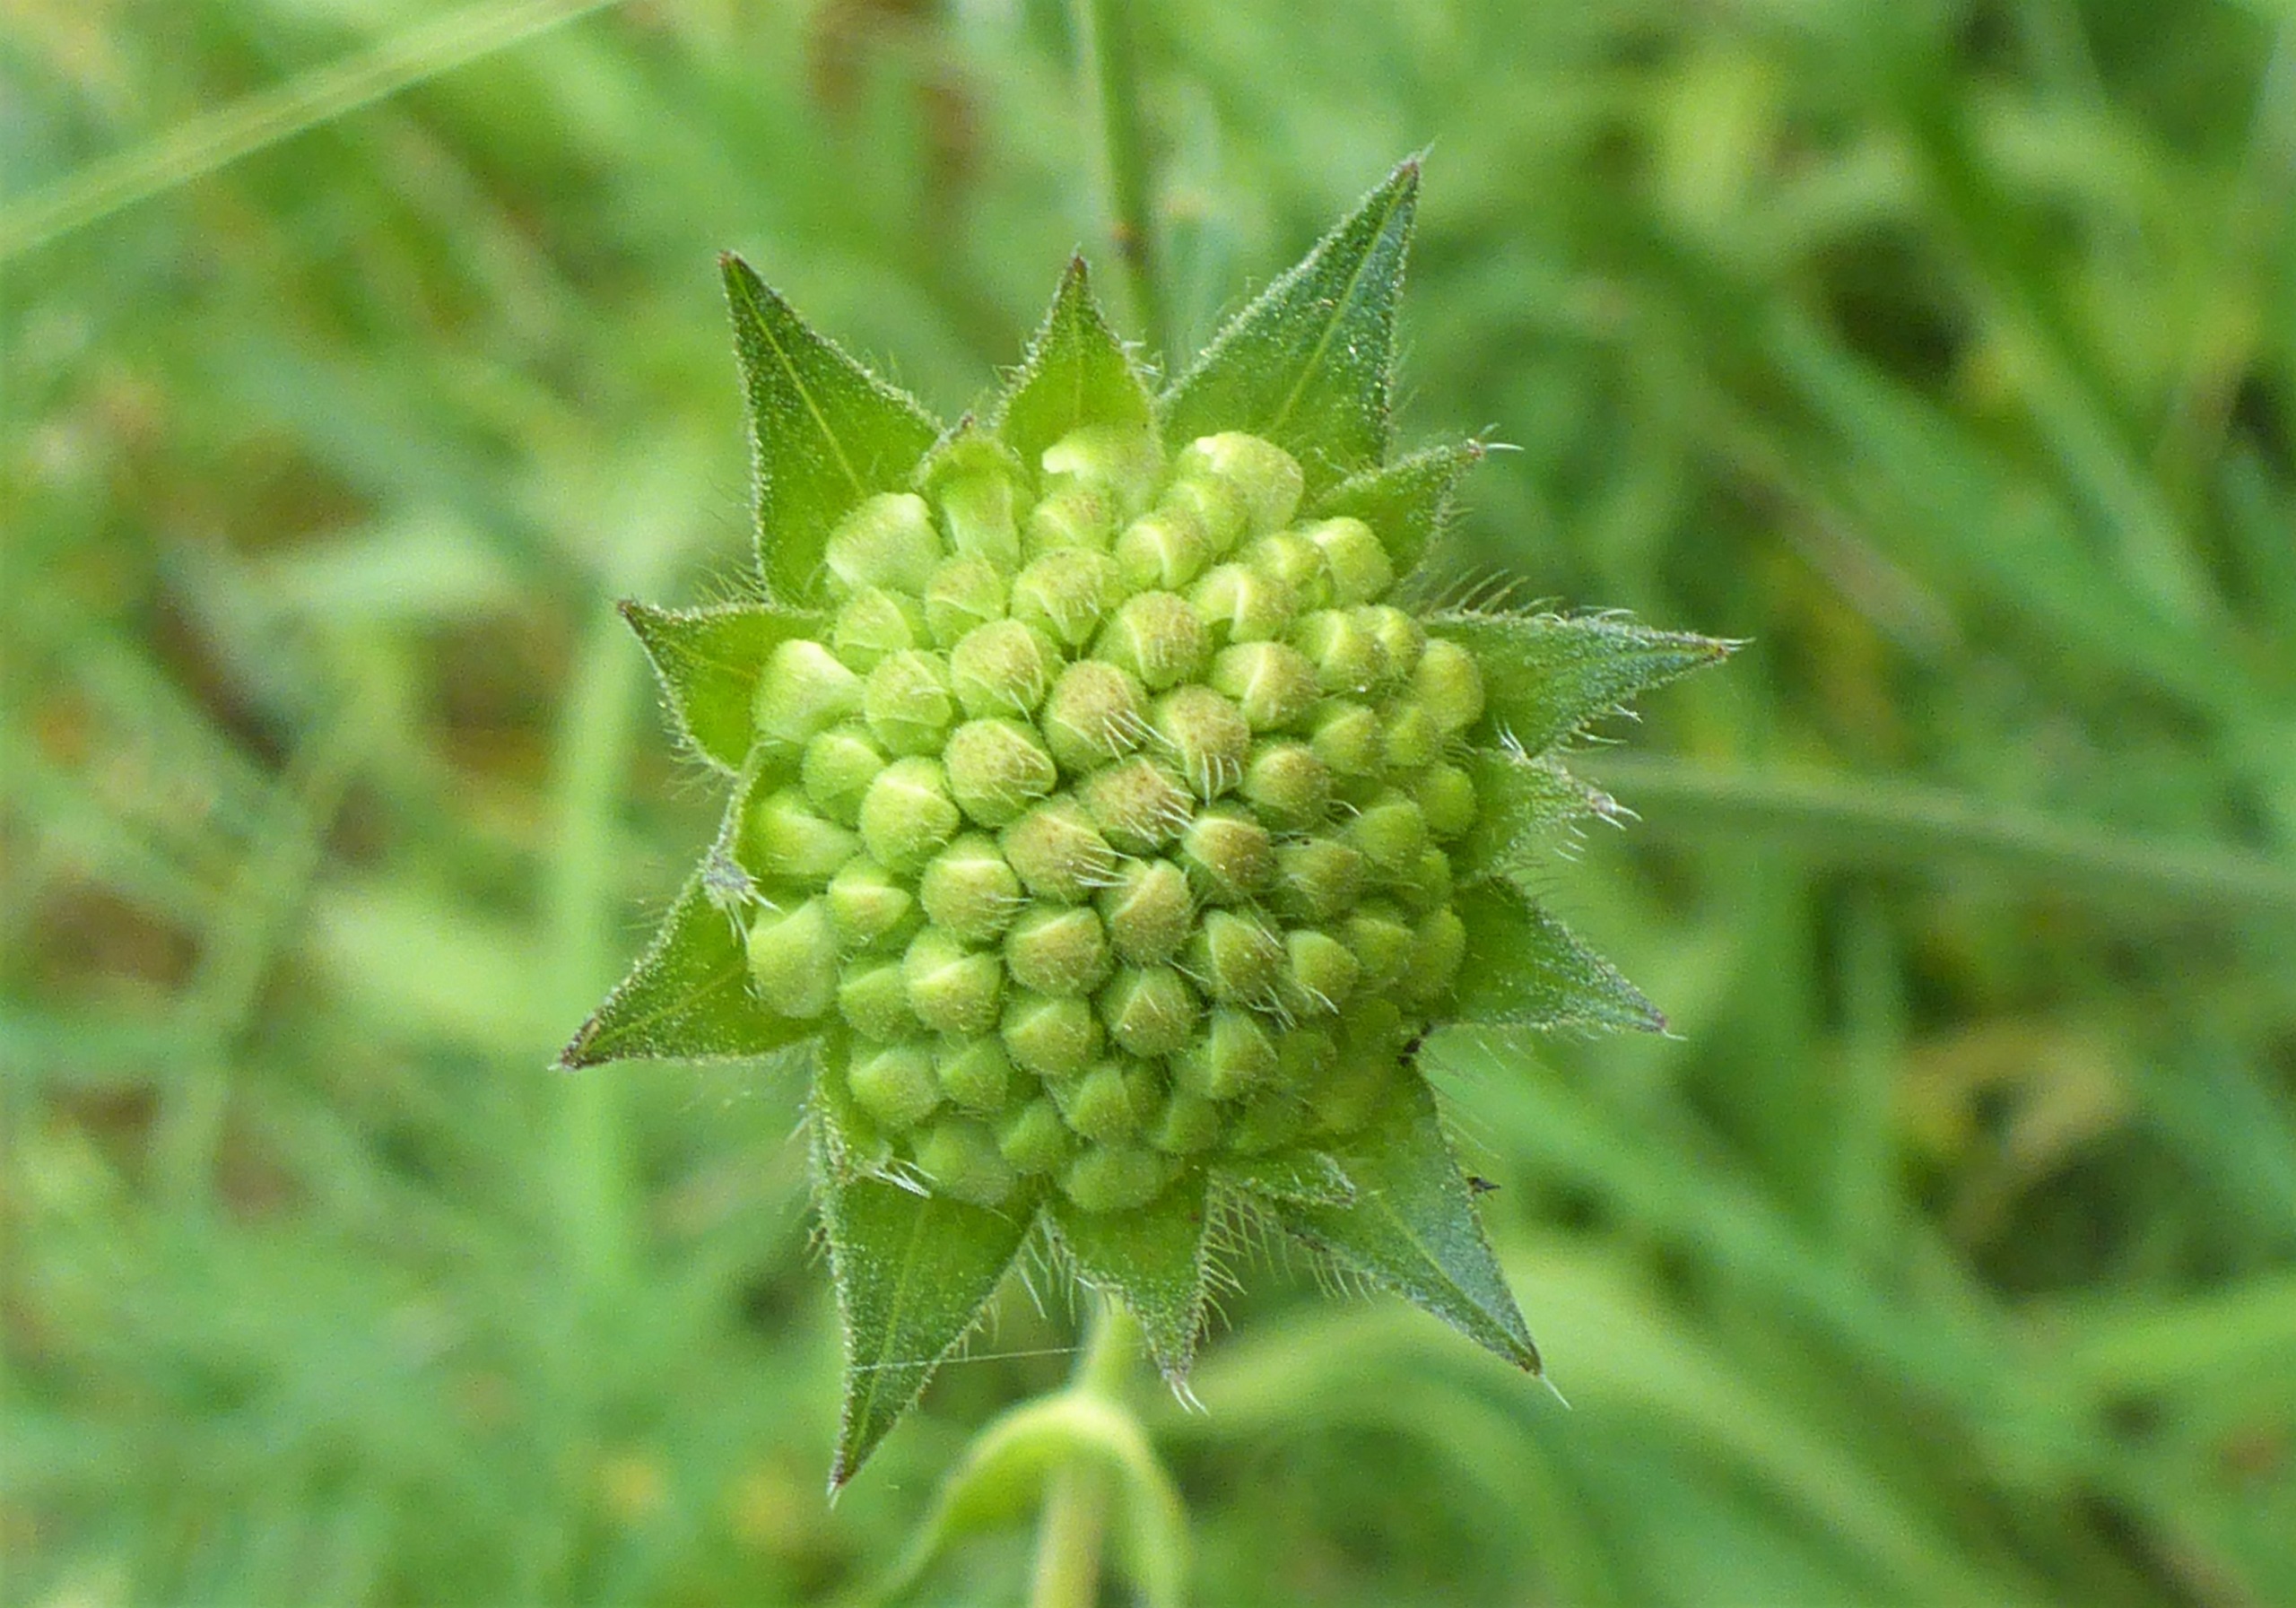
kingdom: Plantae
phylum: Tracheophyta
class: Magnoliopsida
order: Dipsacales
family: Caprifoliaceae
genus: Knautia
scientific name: Knautia arvensis
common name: Blåhat
